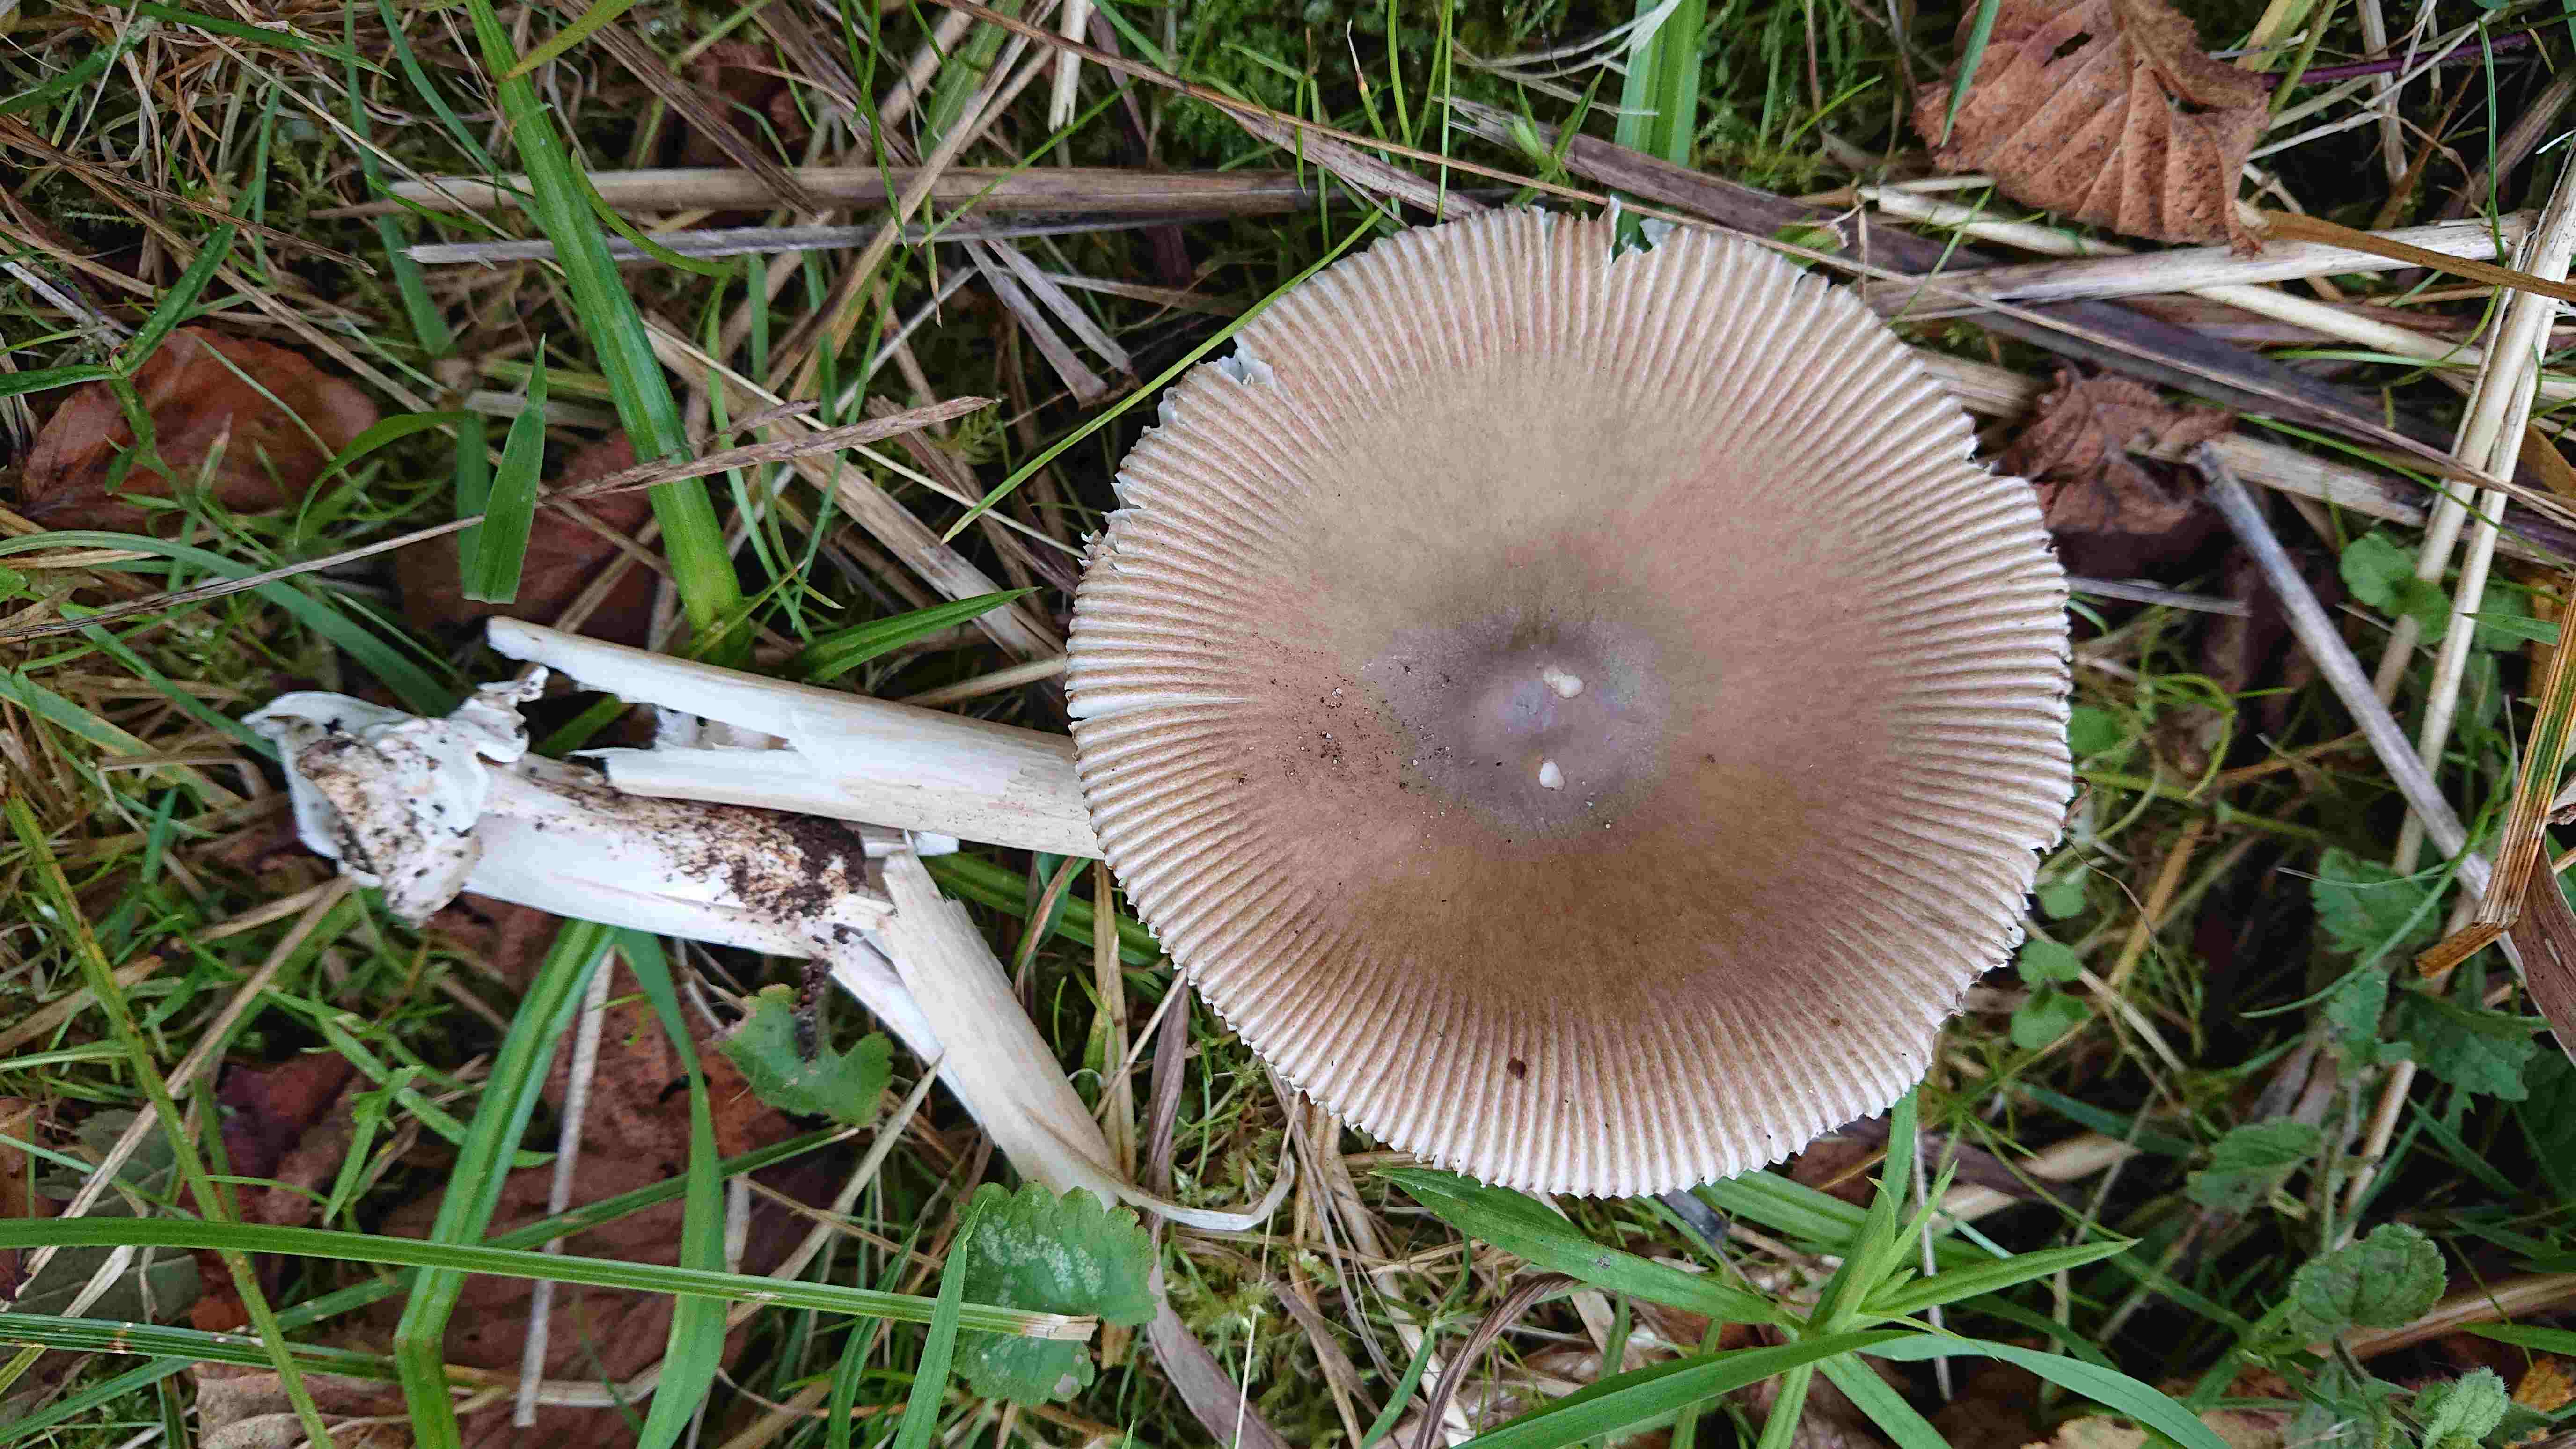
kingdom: Fungi
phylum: Basidiomycota
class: Agaricomycetes
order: Agaricales
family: Amanitaceae
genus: Amanita
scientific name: Amanita fulva
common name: brun kam-fluesvamp
